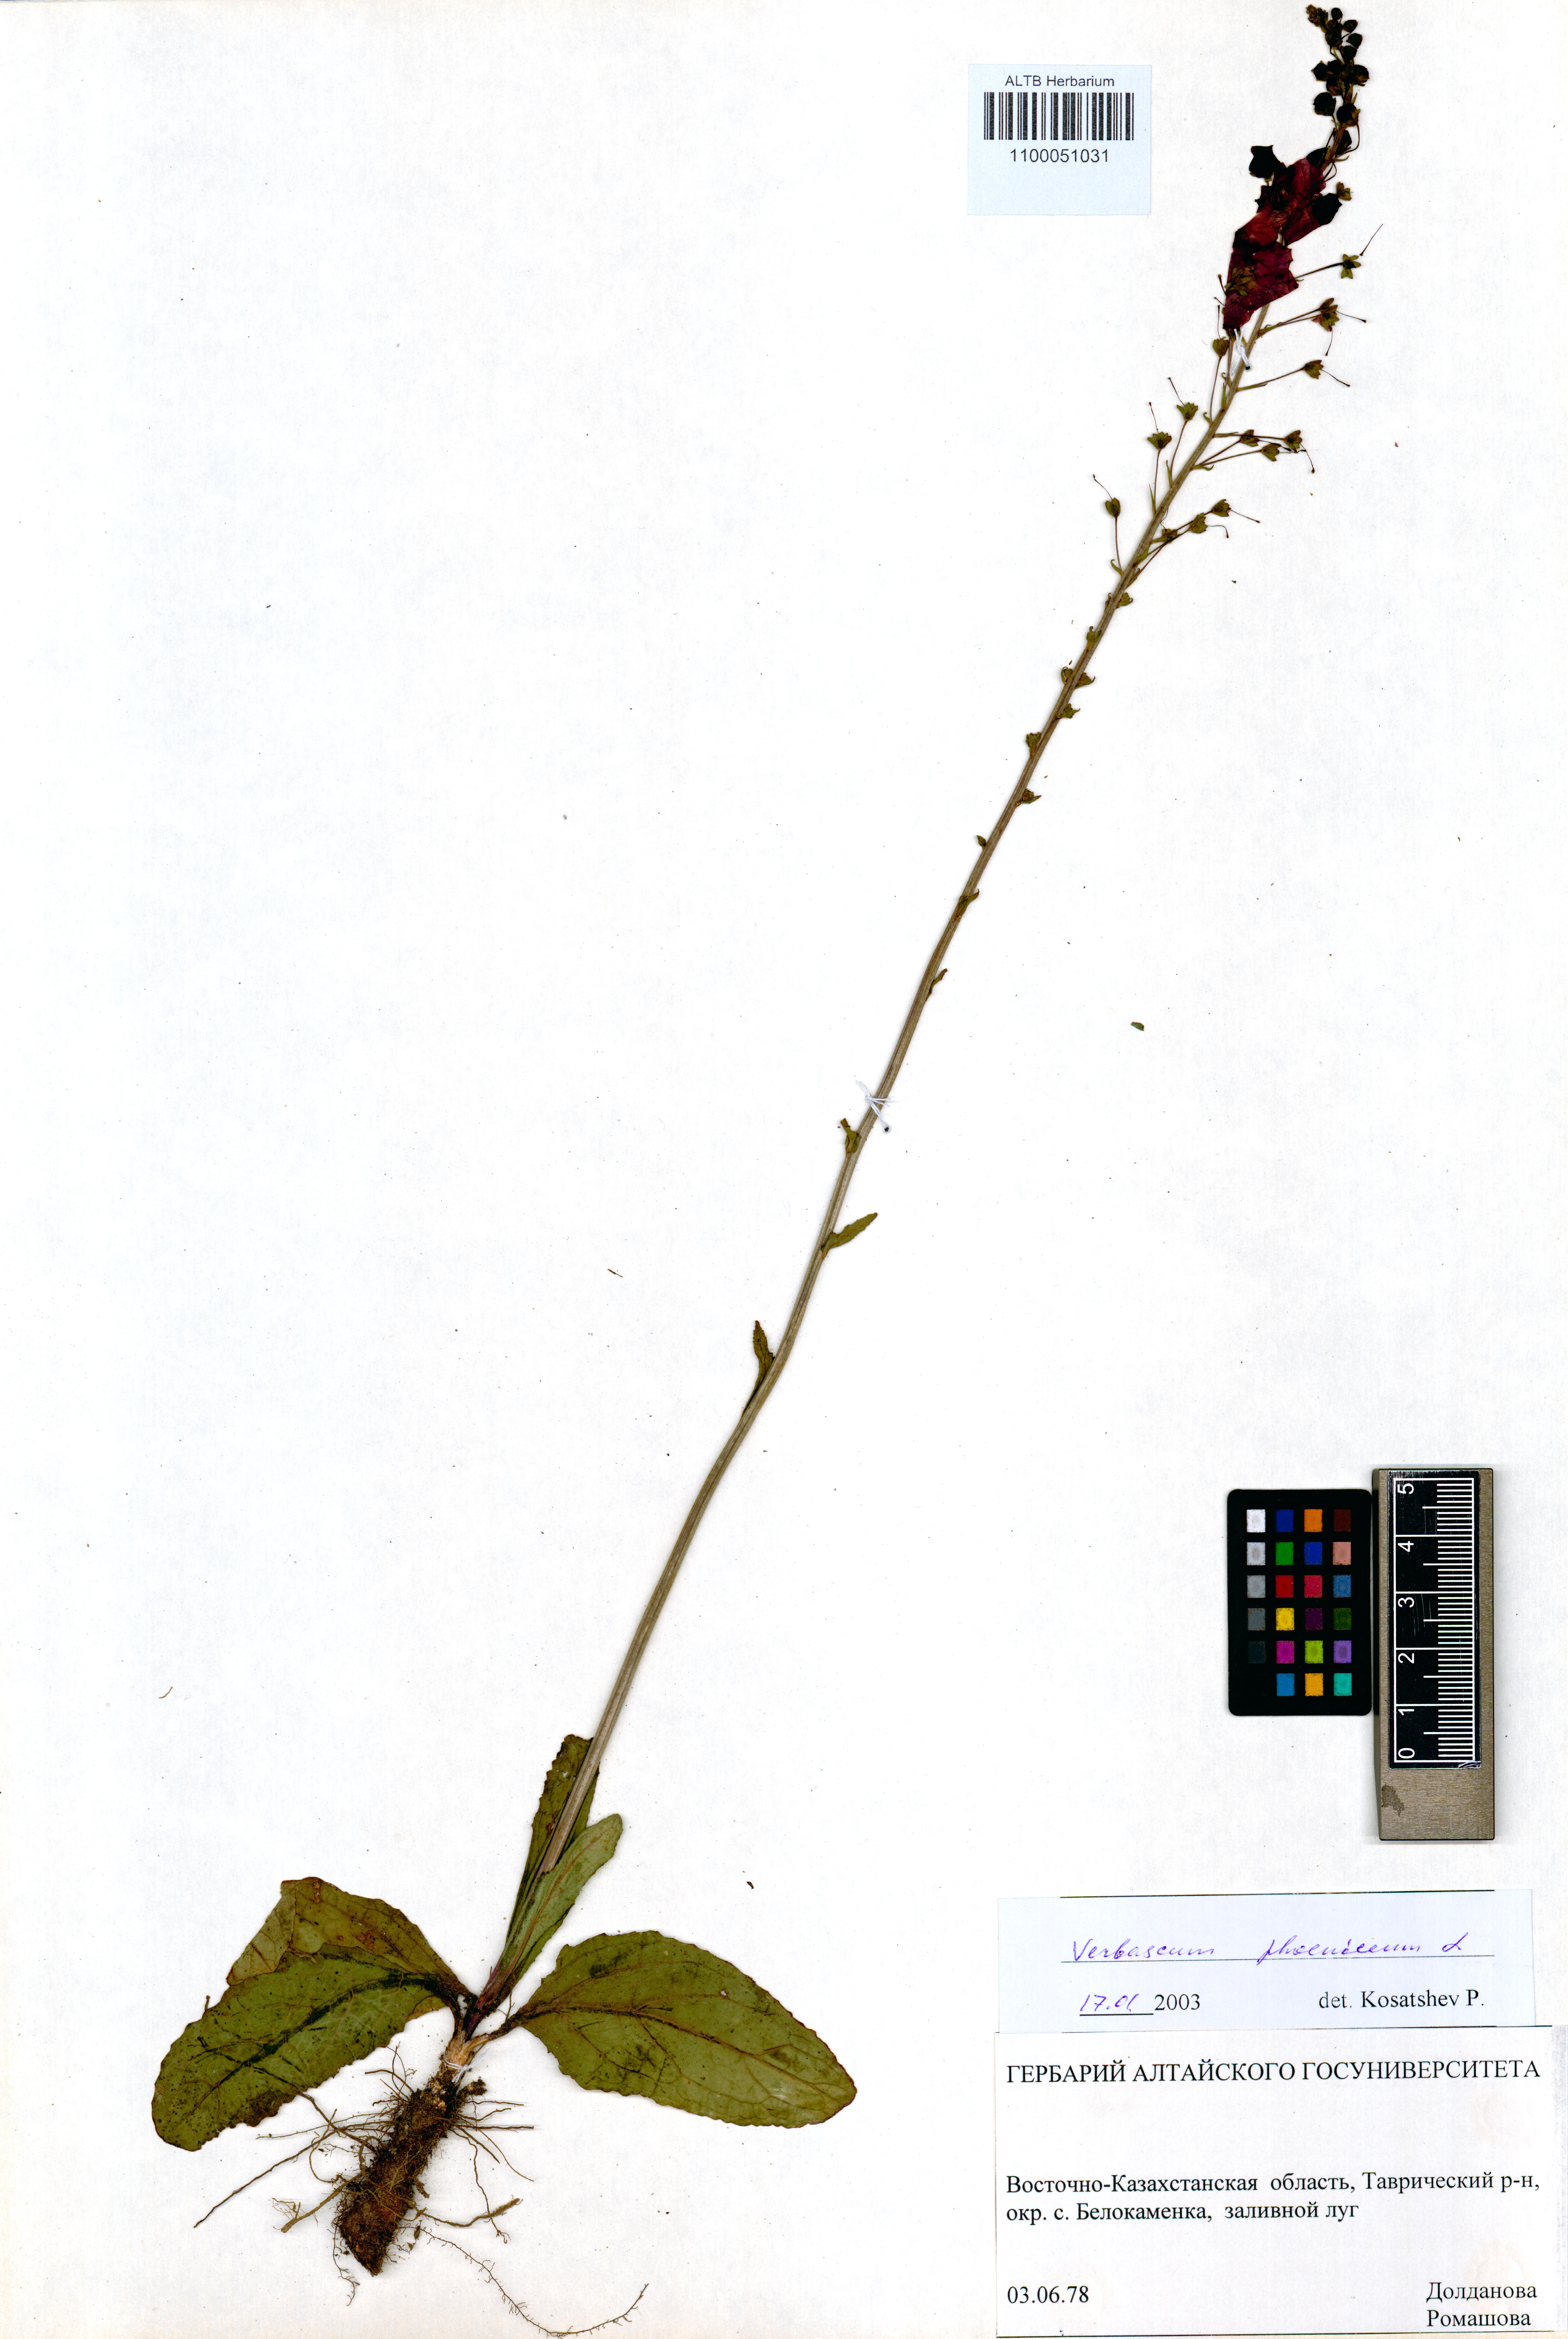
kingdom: Plantae
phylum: Tracheophyta
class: Magnoliopsida
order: Lamiales
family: Scrophulariaceae
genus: Verbascum
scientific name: Verbascum phoeniceum
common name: Purple mullein
